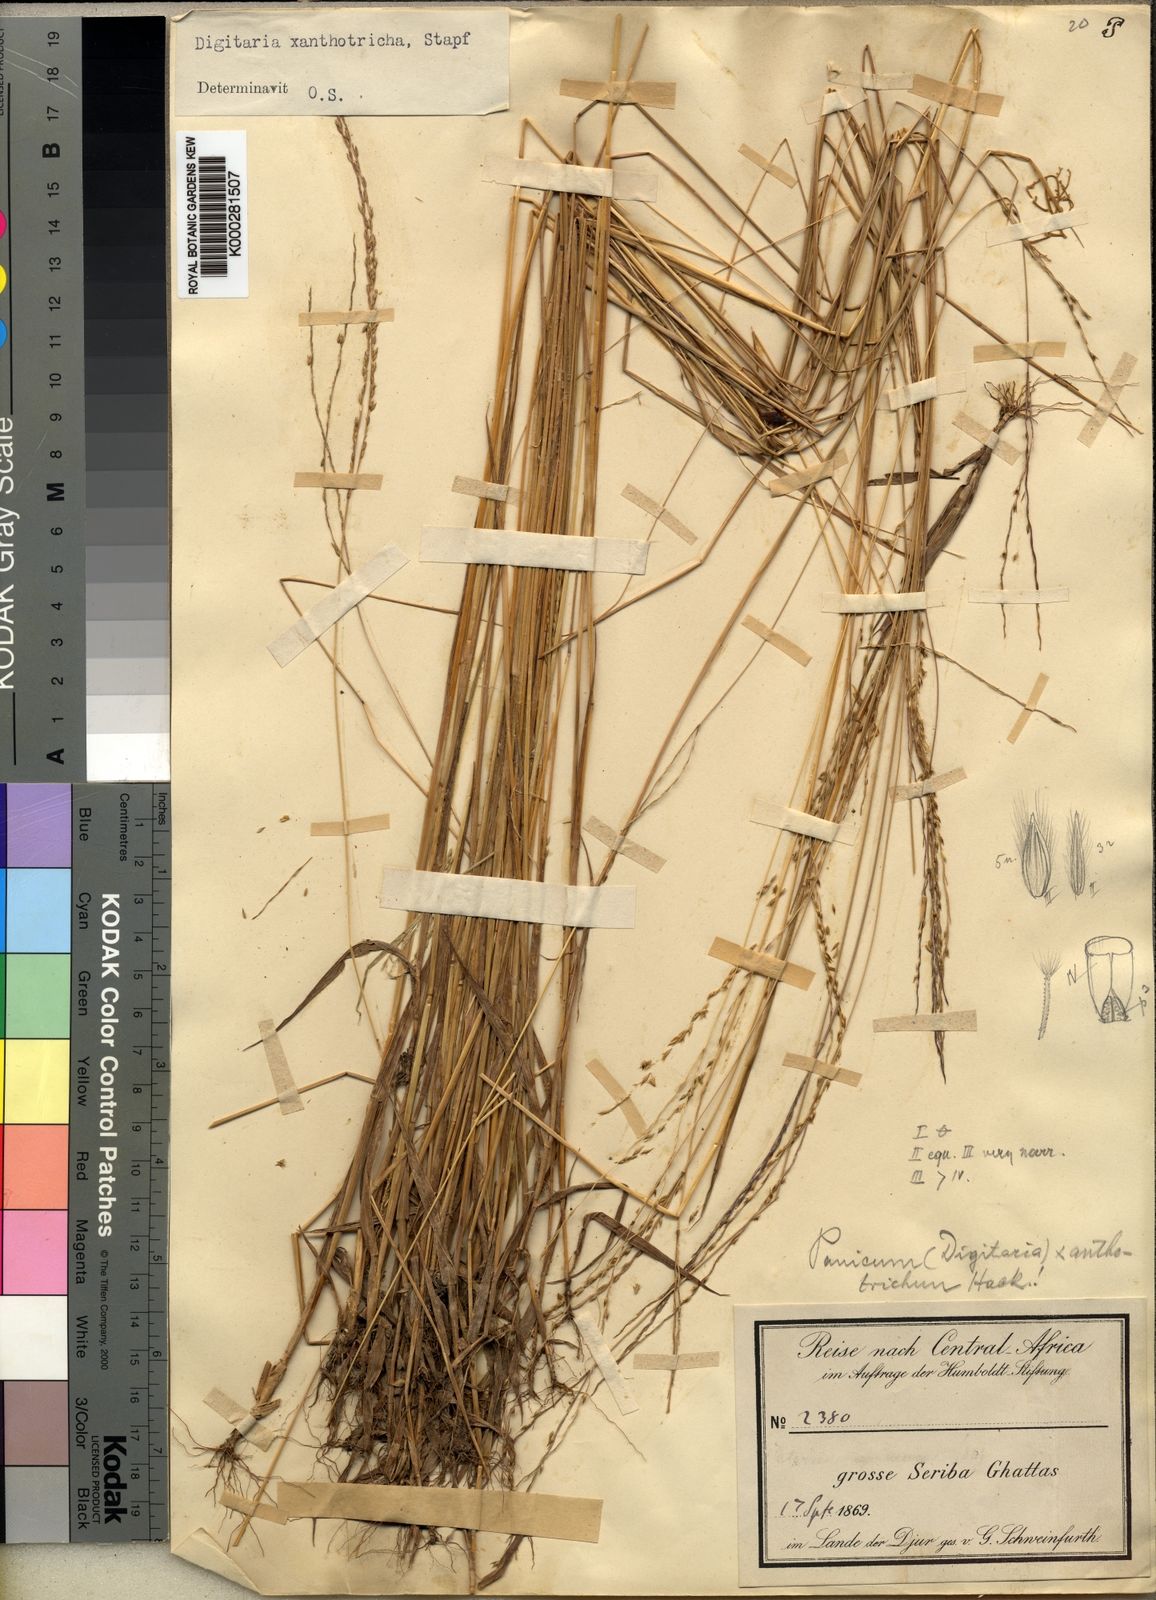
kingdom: Plantae
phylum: Tracheophyta
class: Liliopsida
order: Poales
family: Poaceae
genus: Digitaria
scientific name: Digitaria xanthotricha
